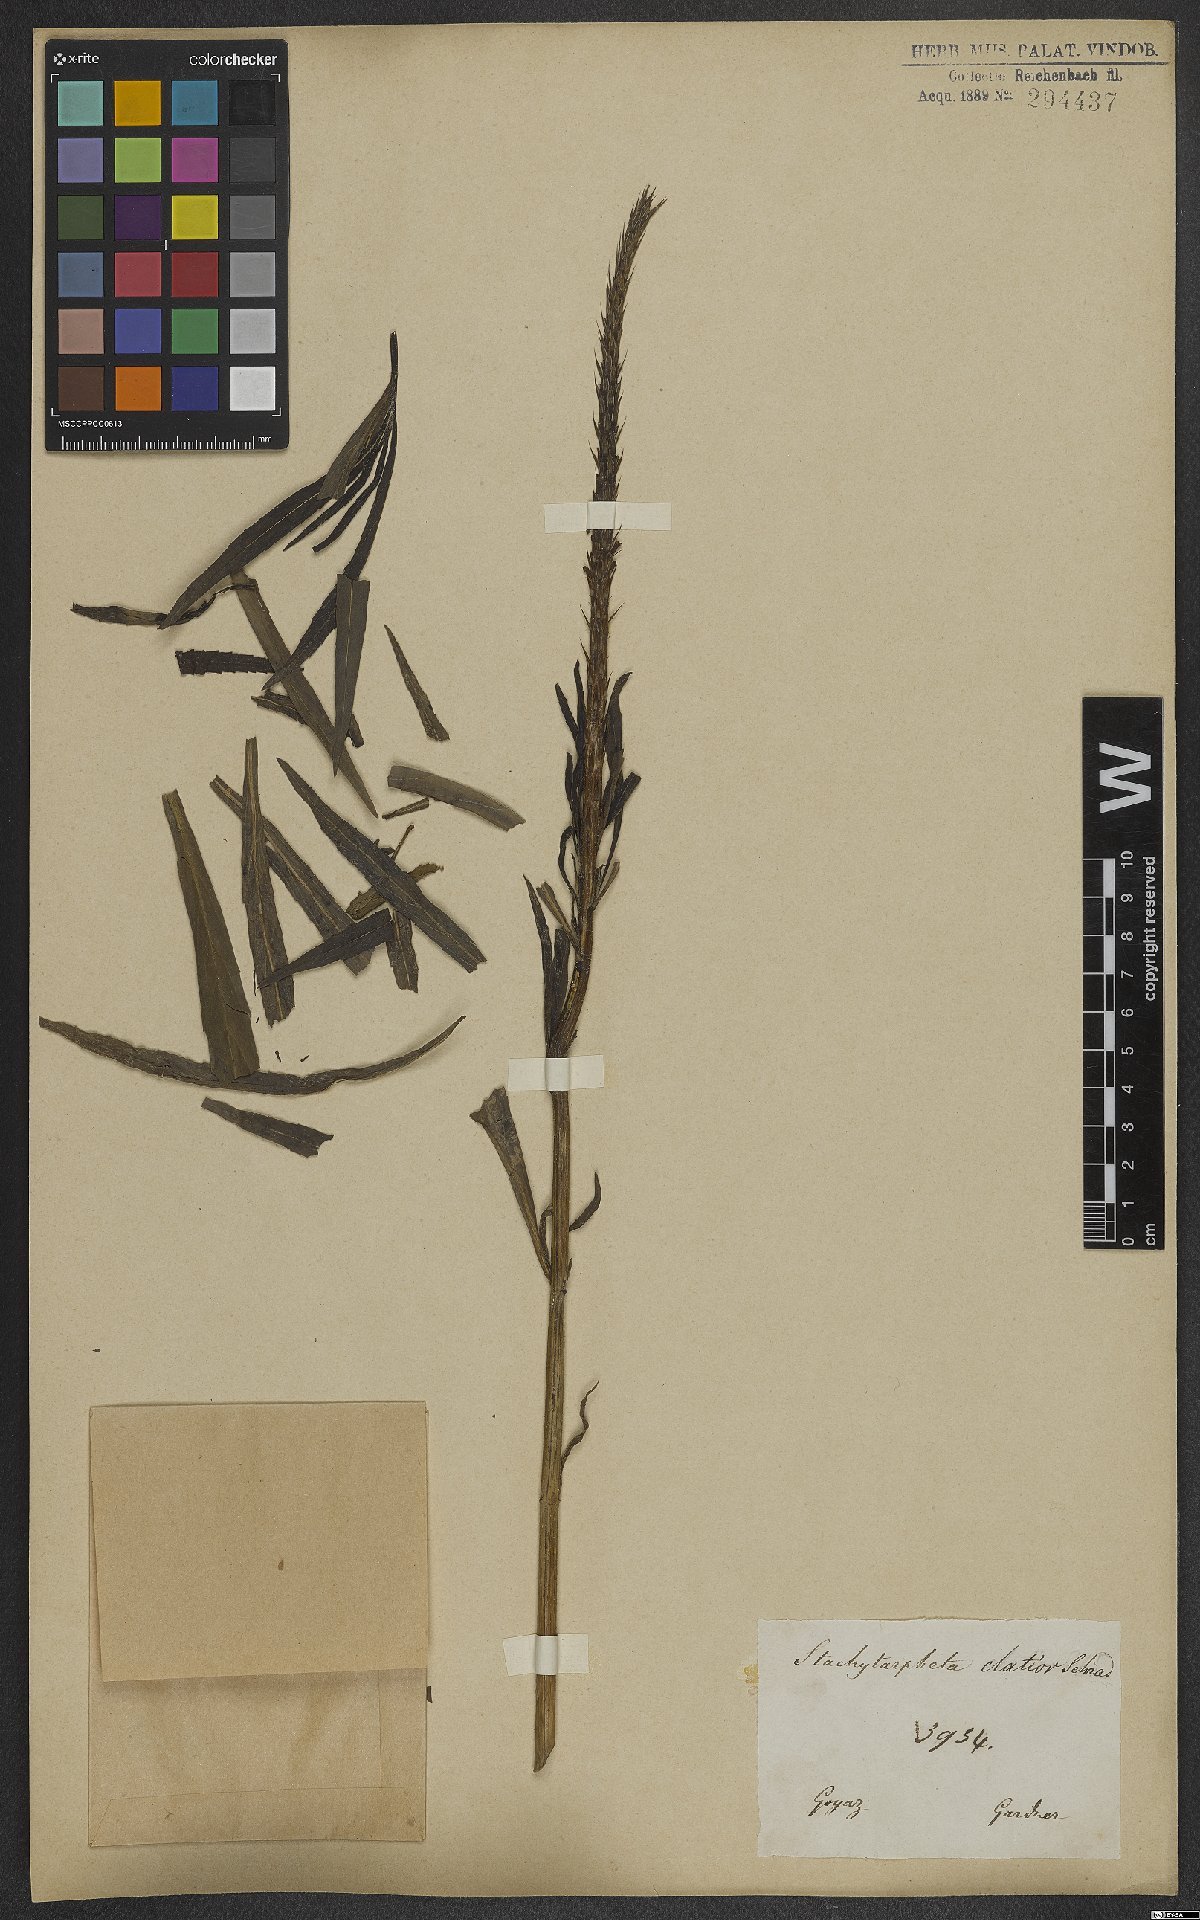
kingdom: Plantae
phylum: Tracheophyta
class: Magnoliopsida
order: Lamiales
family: Verbenaceae
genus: Stachytarpheta
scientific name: Stachytarpheta indica
